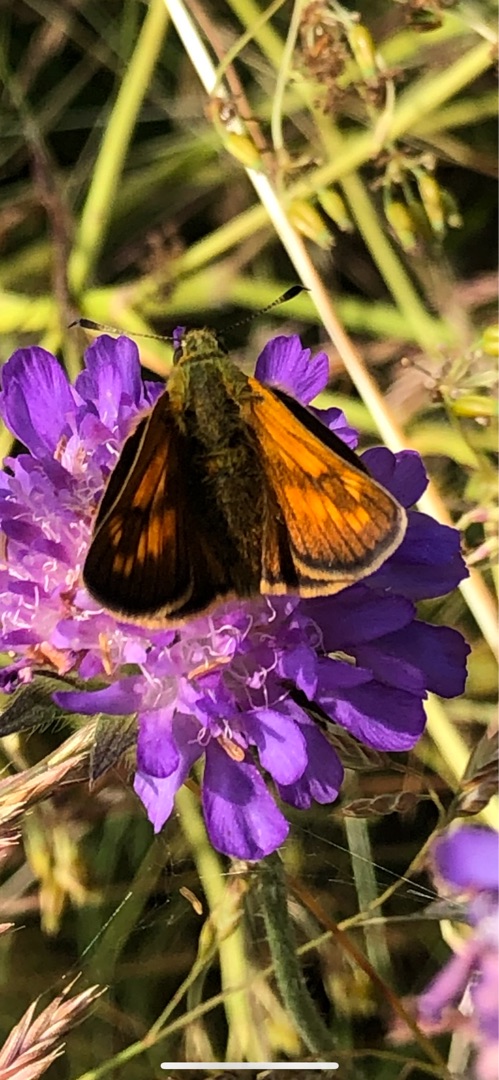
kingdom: Animalia
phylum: Arthropoda
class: Insecta
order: Lepidoptera
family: Hesperiidae
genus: Ochlodes
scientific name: Ochlodes venata
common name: Stor bredpande
